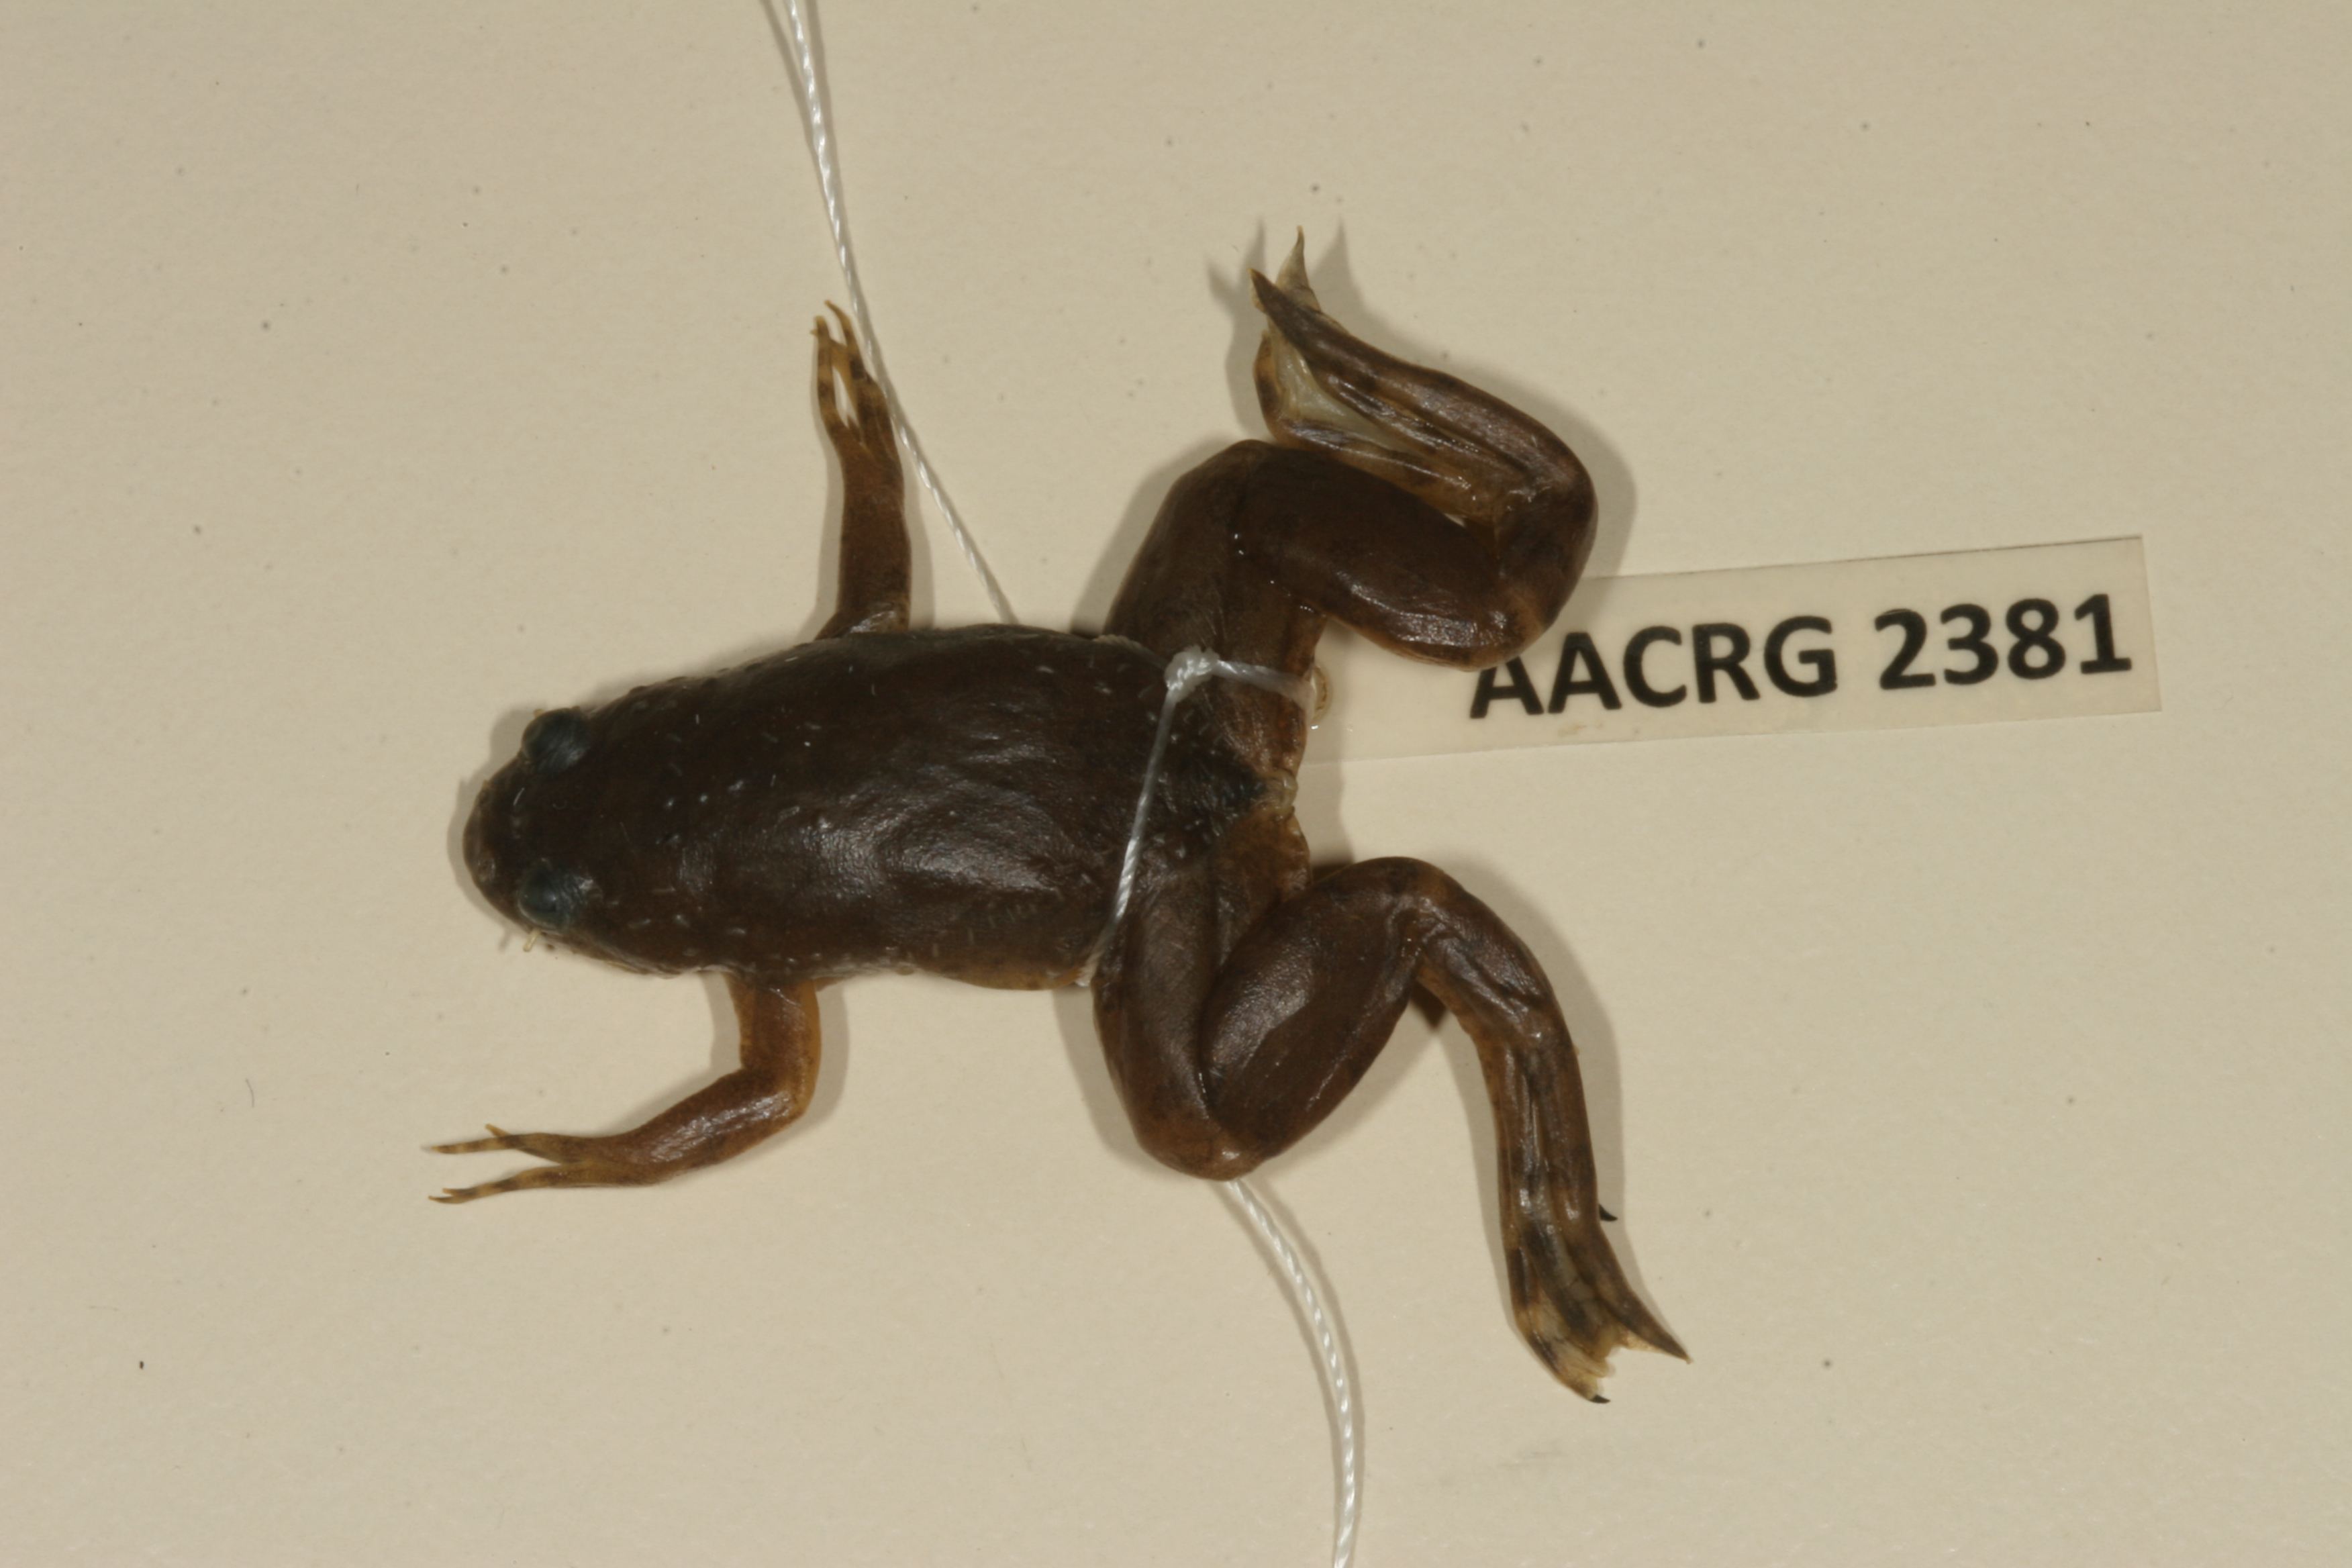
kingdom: Animalia
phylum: Chordata
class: Amphibia
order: Anura
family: Pipidae
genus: Xenopus
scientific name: Xenopus muelleri
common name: Muller's clawed frog
